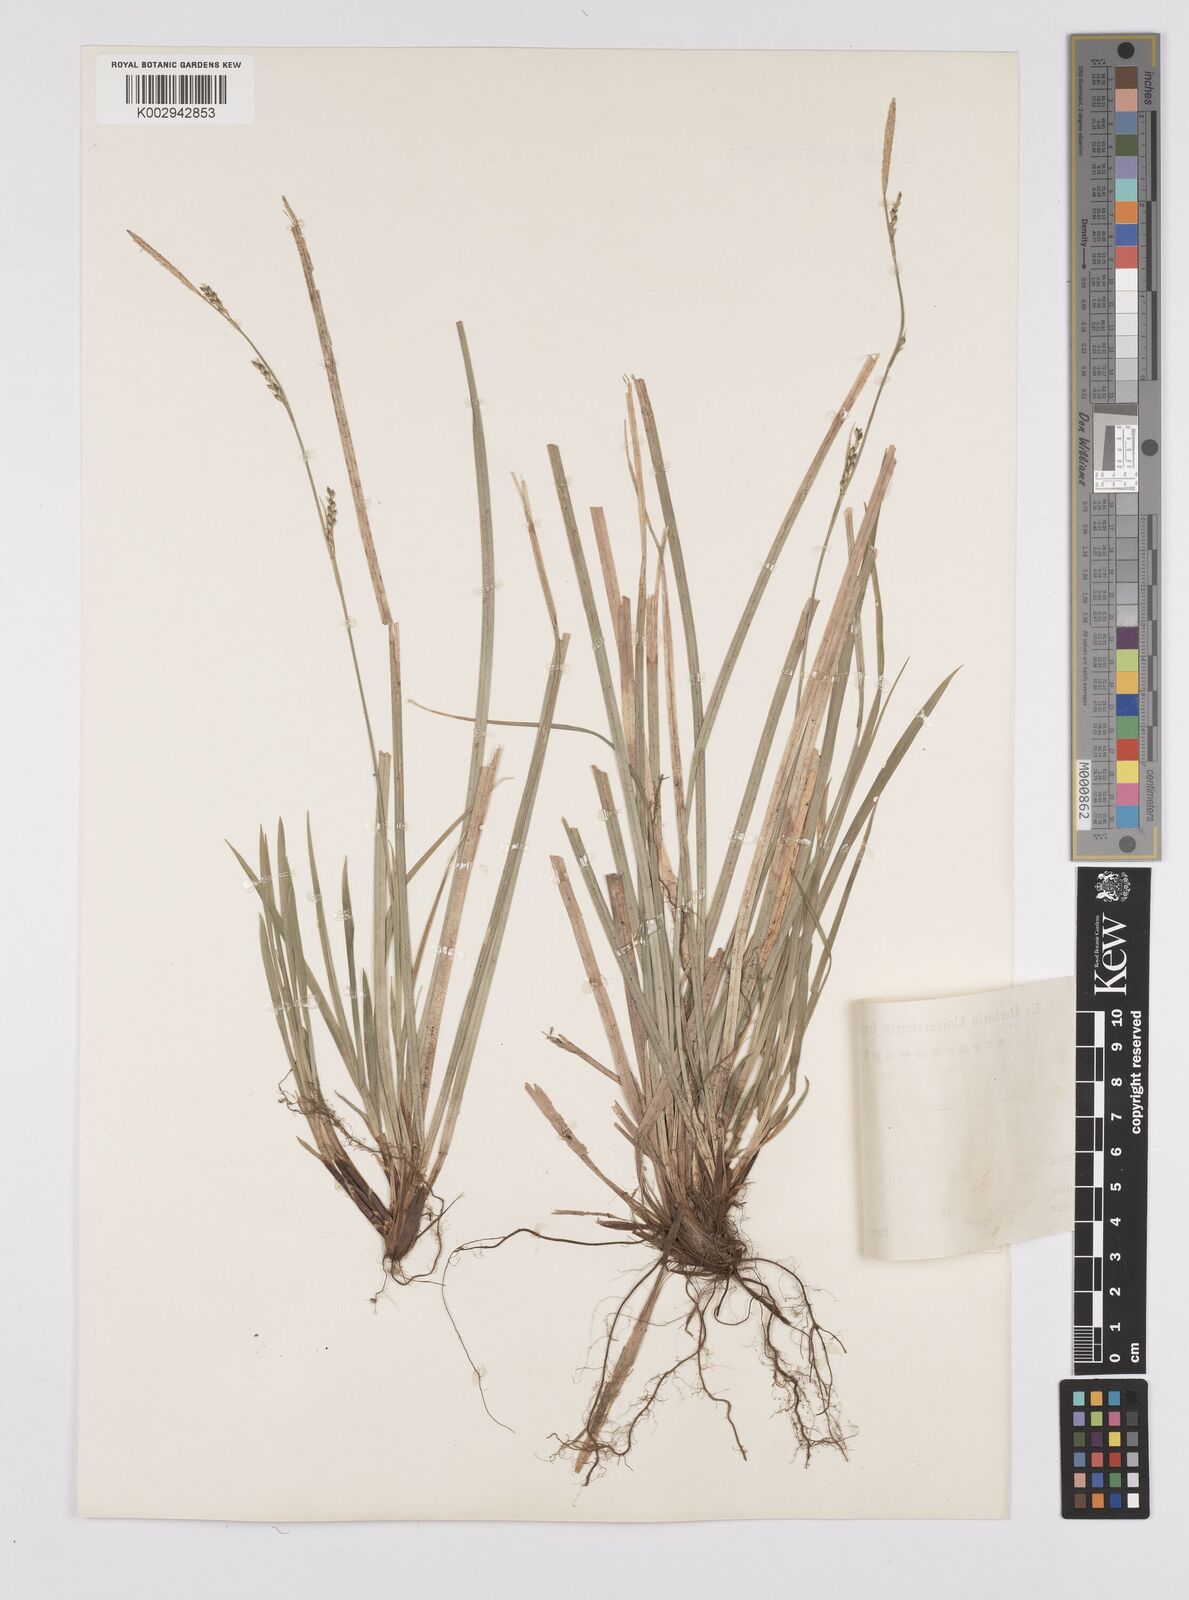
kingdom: Plantae
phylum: Tracheophyta
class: Liliopsida
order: Poales
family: Cyperaceae
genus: Carex
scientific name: Carex clivorum
